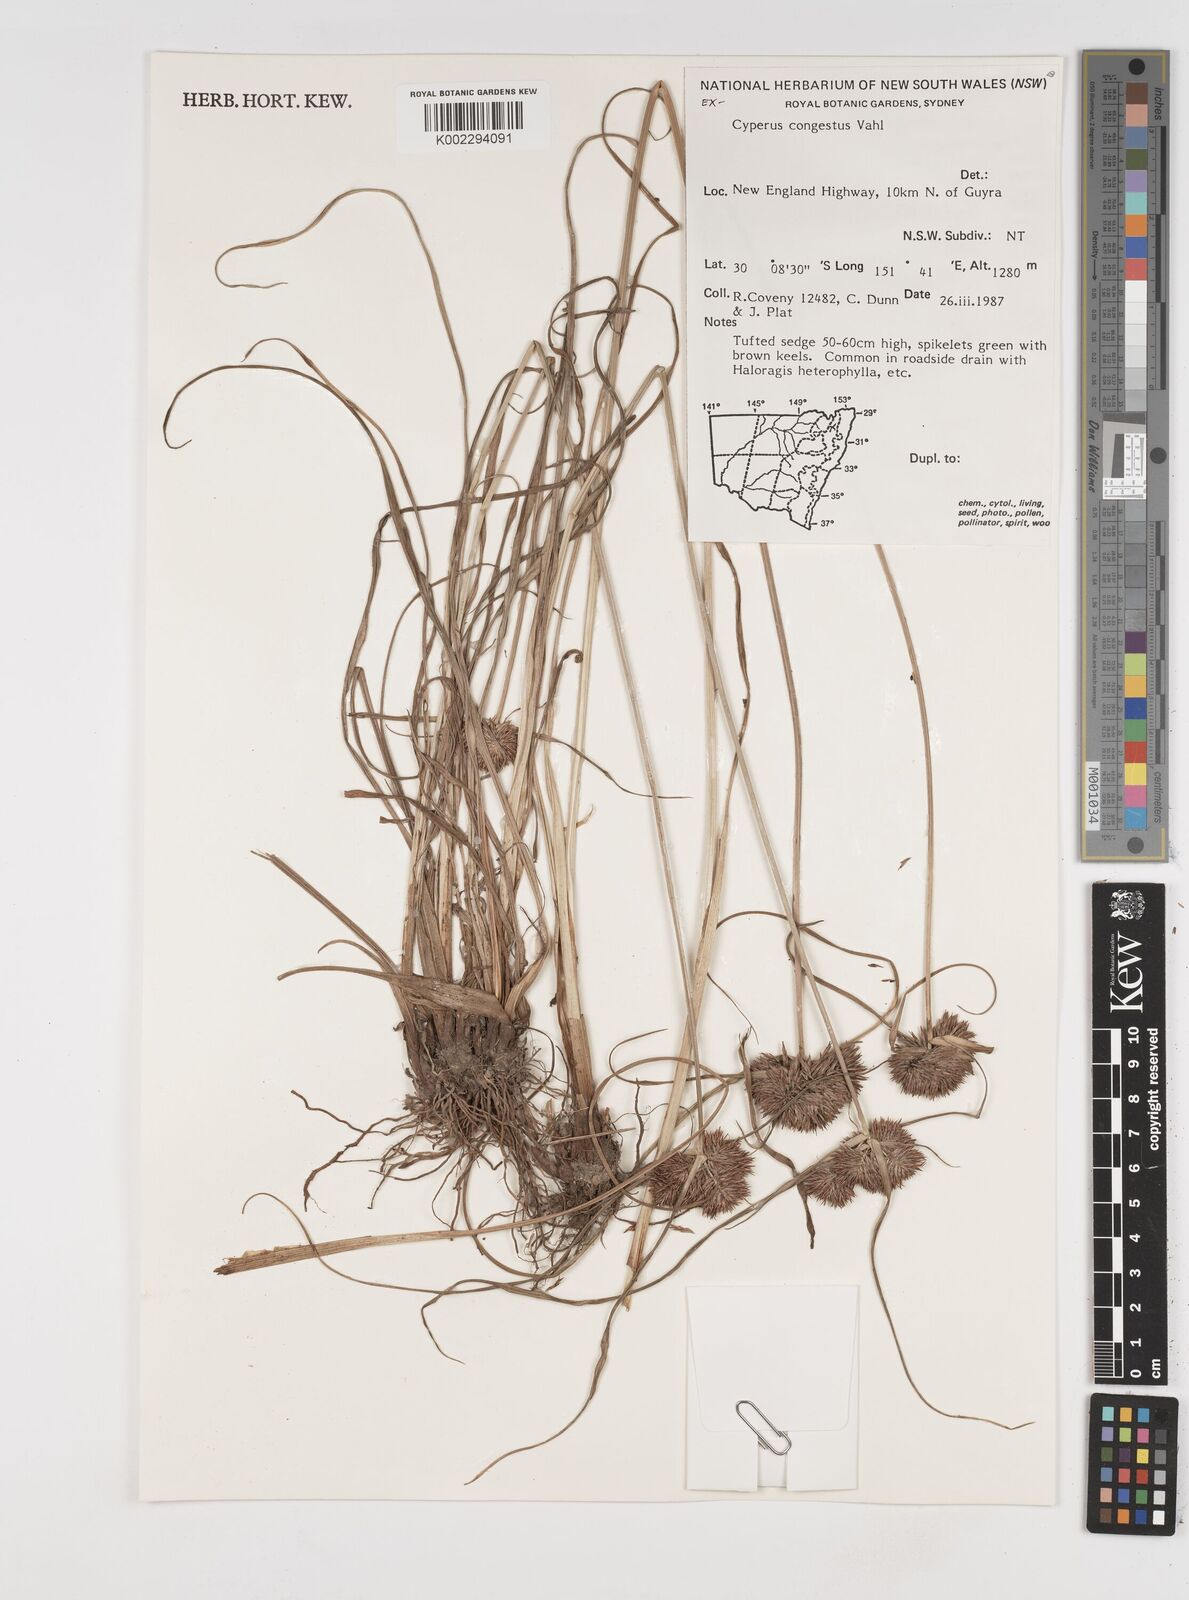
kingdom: Plantae
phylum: Tracheophyta
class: Liliopsida
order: Poales
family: Cyperaceae
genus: Cyperus
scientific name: Cyperus congestus
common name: Dense flat sedge
